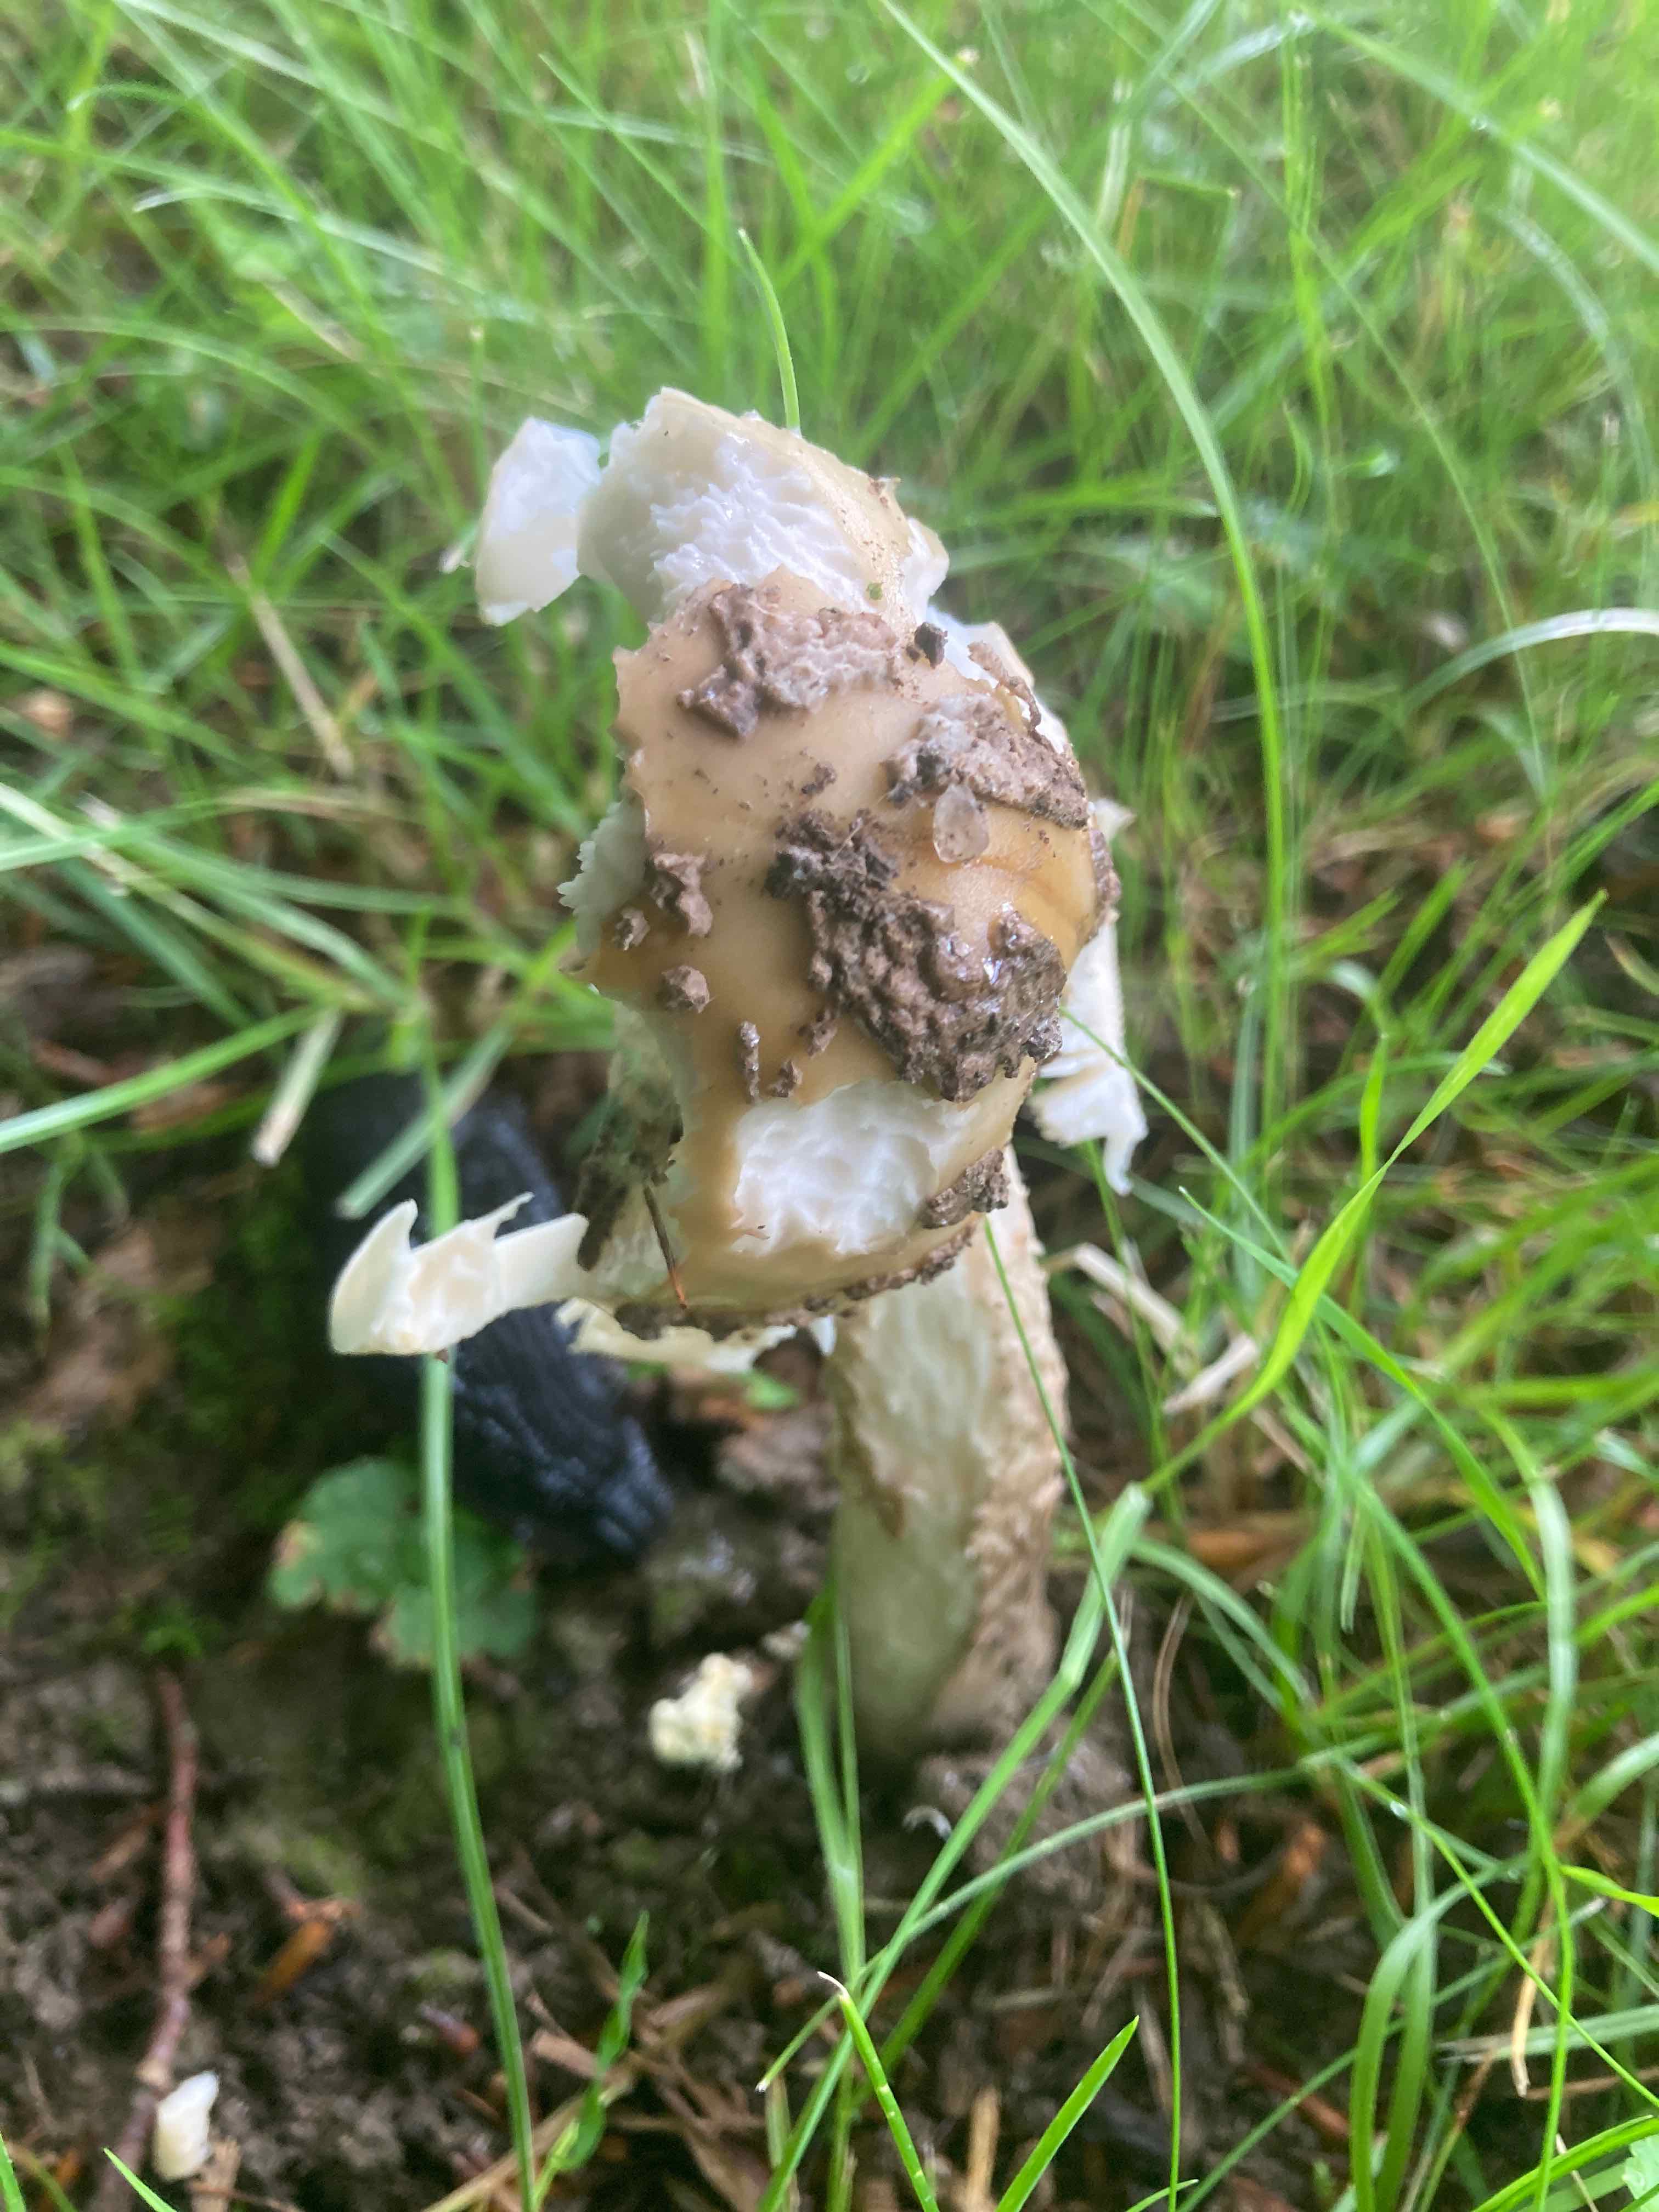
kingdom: Fungi
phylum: Basidiomycota
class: Agaricomycetes
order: Agaricales
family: Amanitaceae
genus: Amanita
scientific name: Amanita ceciliae
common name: stor kam-fluesvamp
